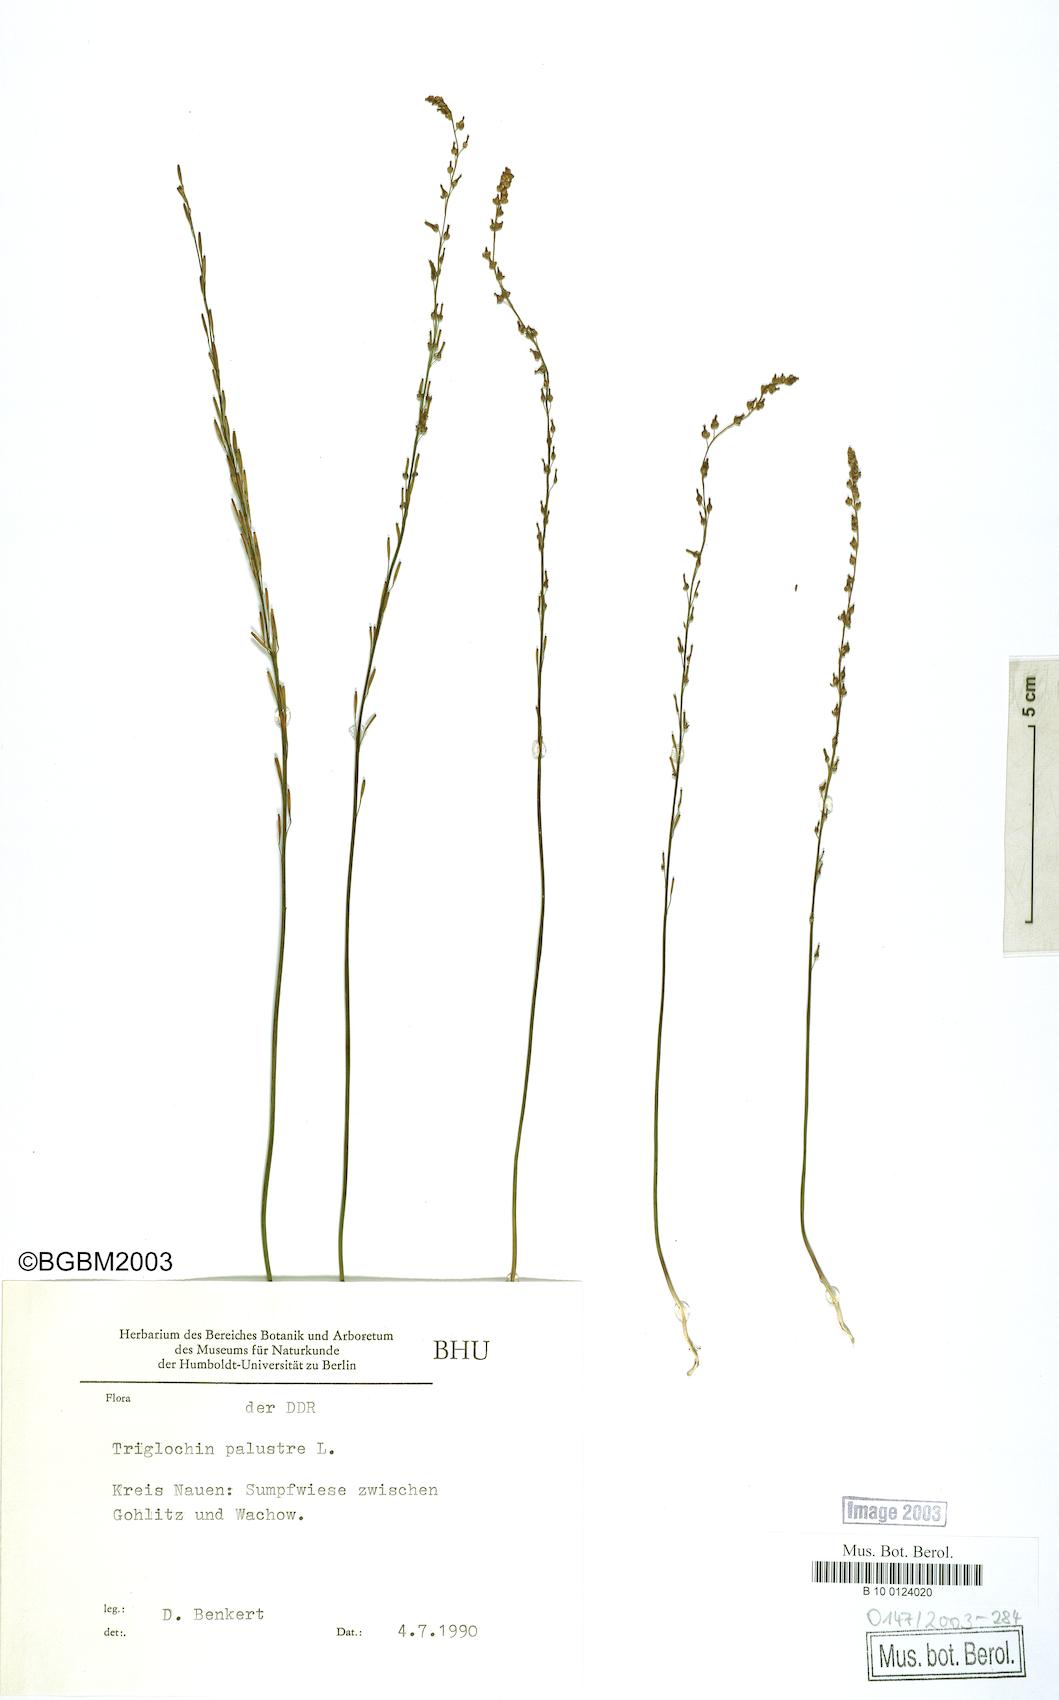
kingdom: Plantae
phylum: Tracheophyta
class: Liliopsida
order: Alismatales
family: Juncaginaceae
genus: Triglochin
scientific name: Triglochin palustris
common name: Marsh arrowgrass
